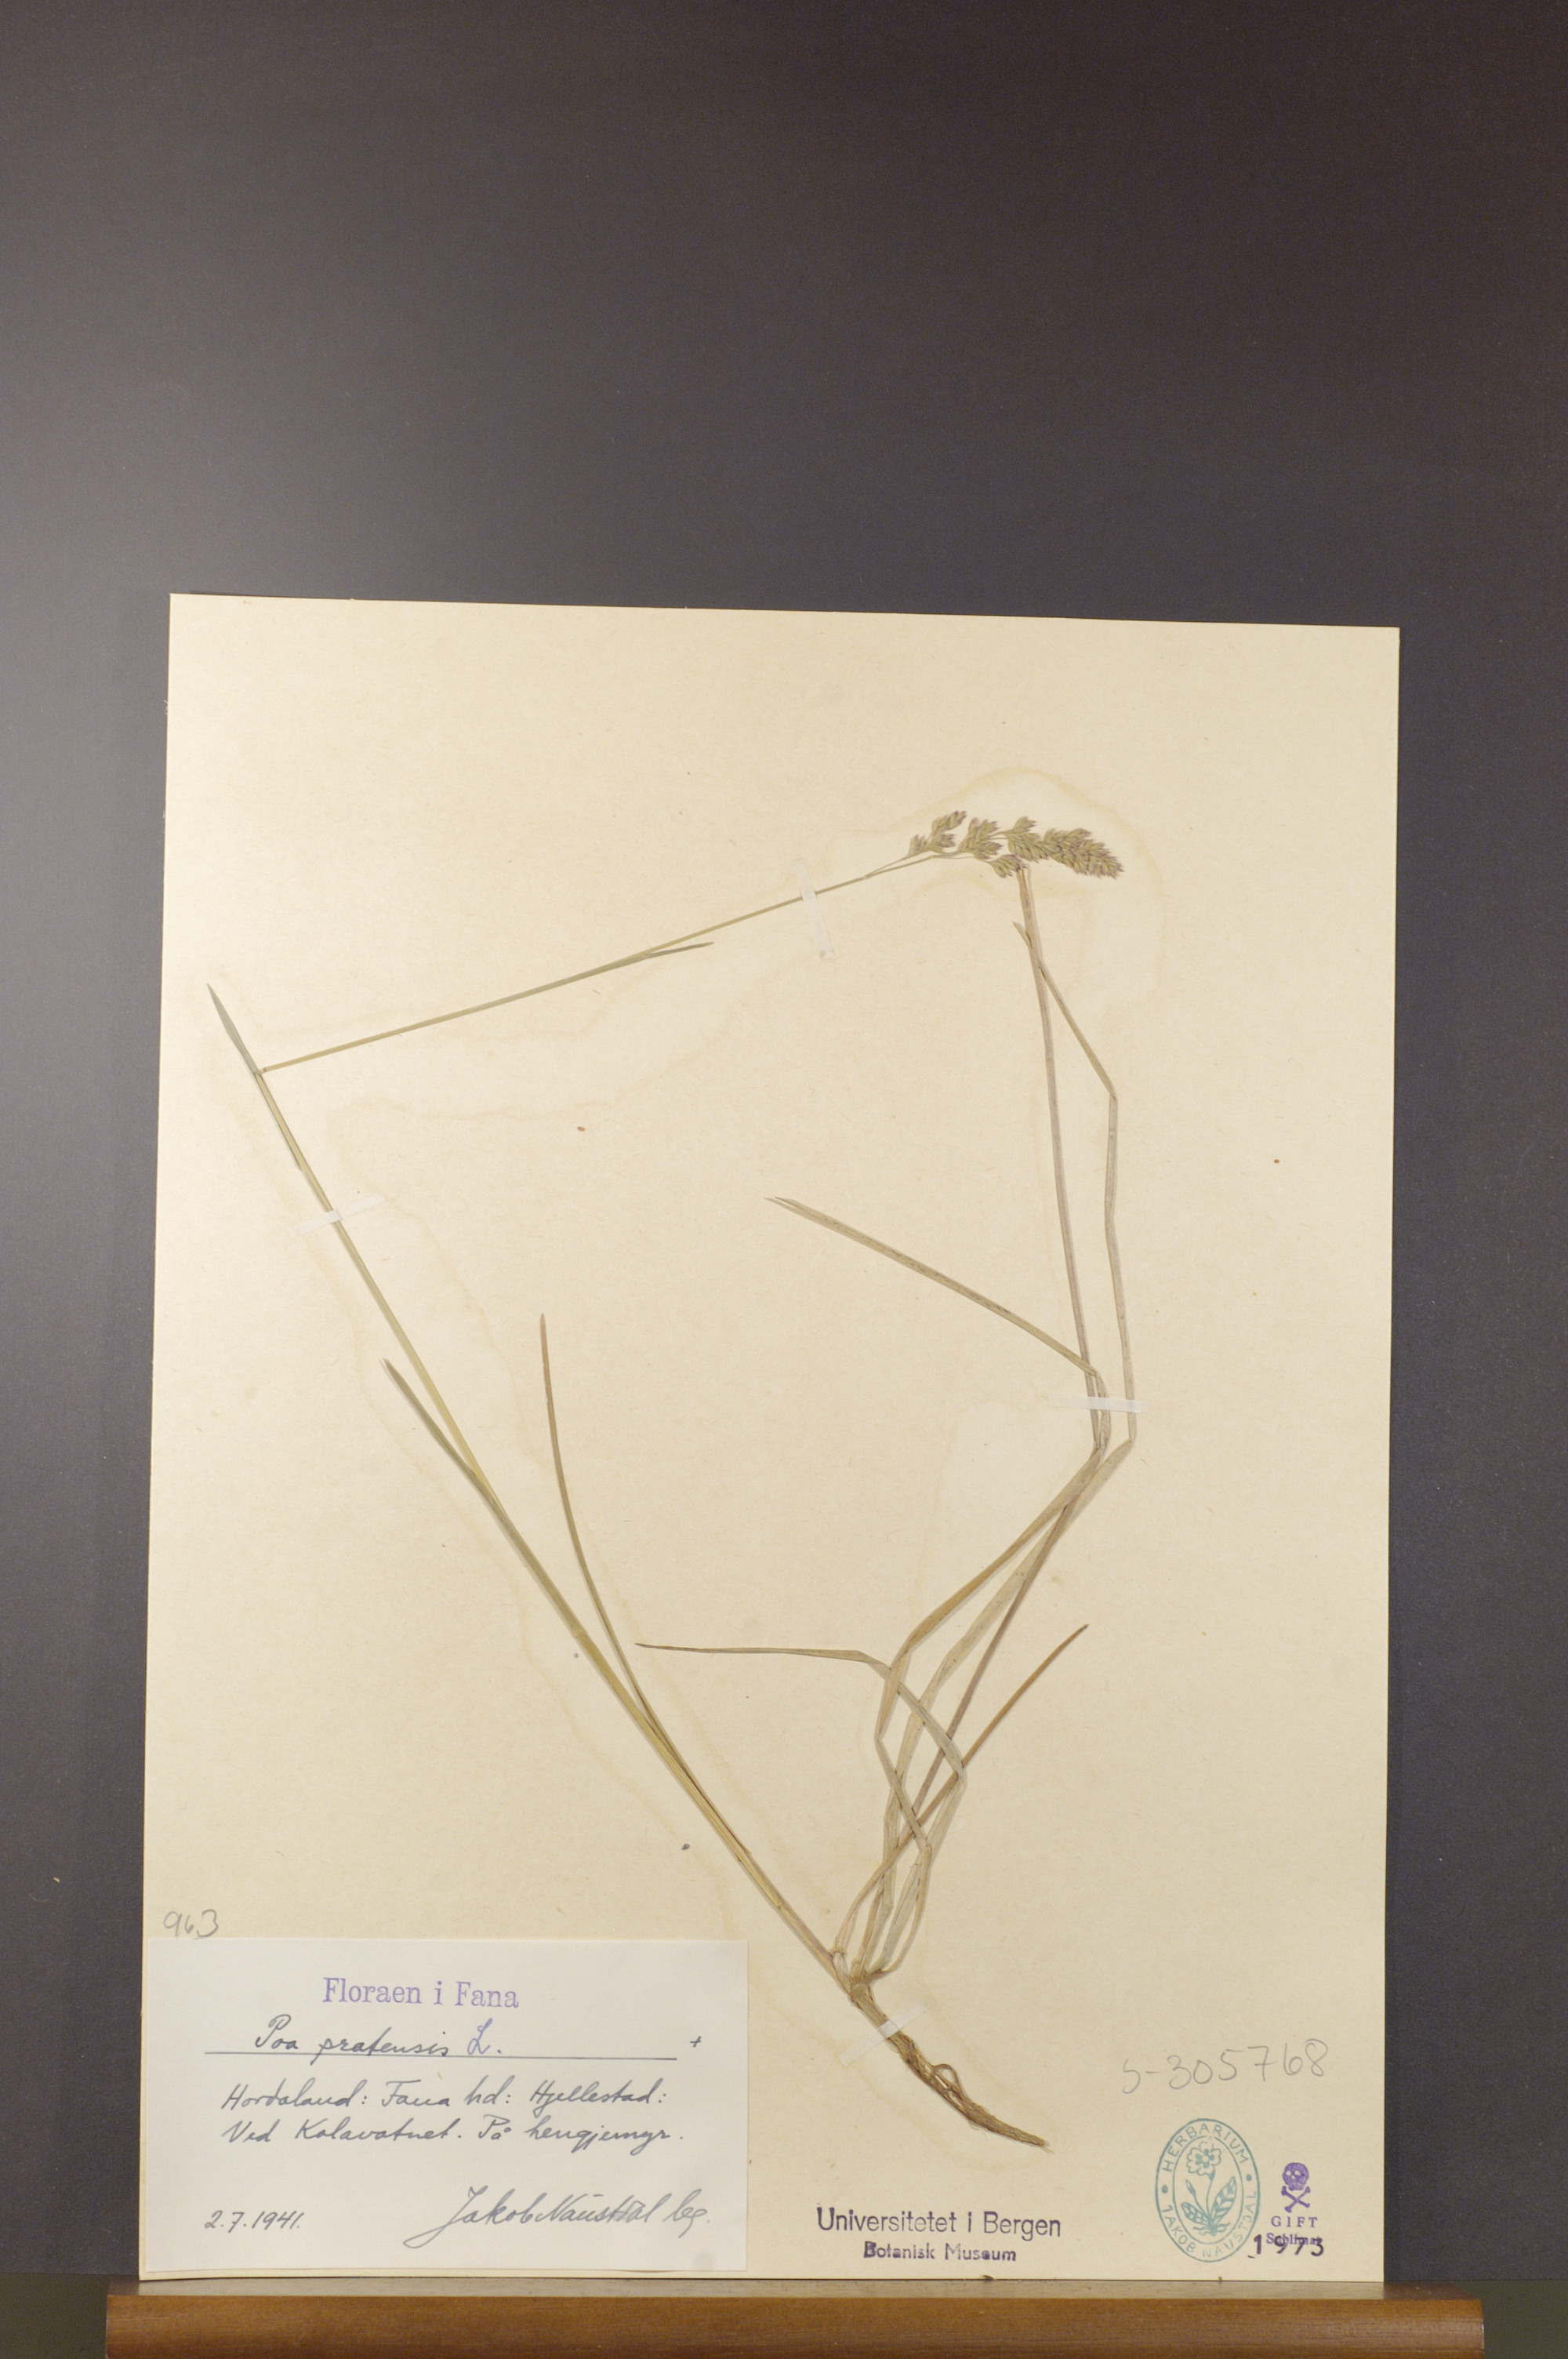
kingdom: Plantae
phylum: Tracheophyta
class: Liliopsida
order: Poales
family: Poaceae
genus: Poa
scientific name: Poa pratensis
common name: Kentucky bluegrass
